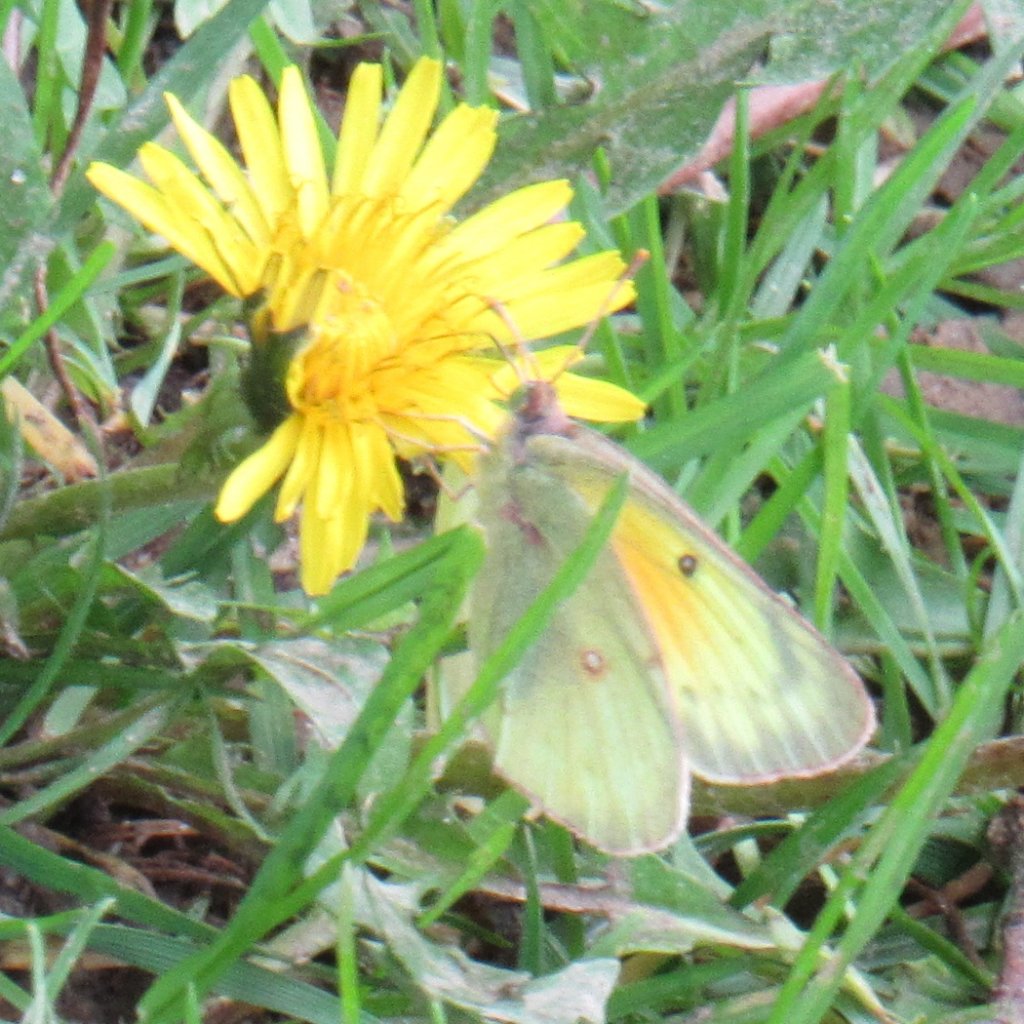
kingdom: Animalia
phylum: Arthropoda
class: Insecta
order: Lepidoptera
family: Pieridae
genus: Colias
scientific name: Colias eurytheme
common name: Orange Sulphur
